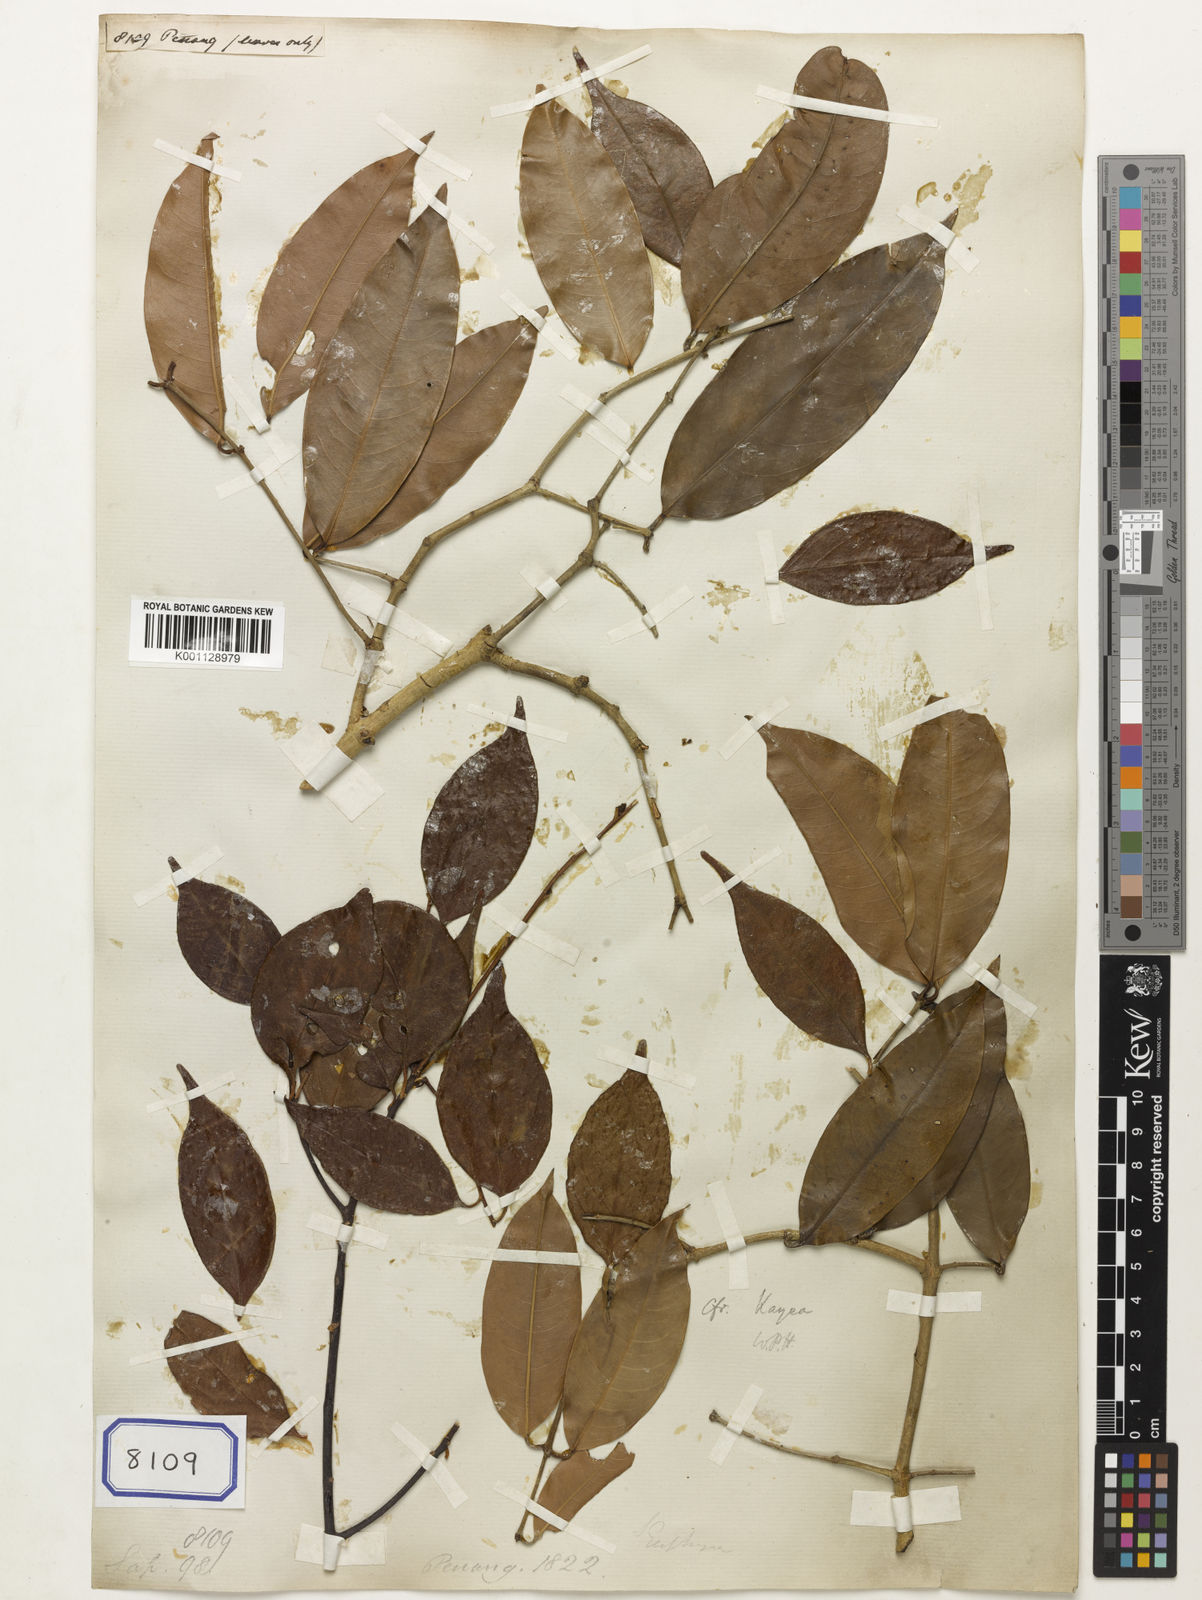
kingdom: Plantae
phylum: Tracheophyta
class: Magnoliopsida
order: Sapindales
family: Sapindaceae
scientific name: Sapindaceae
